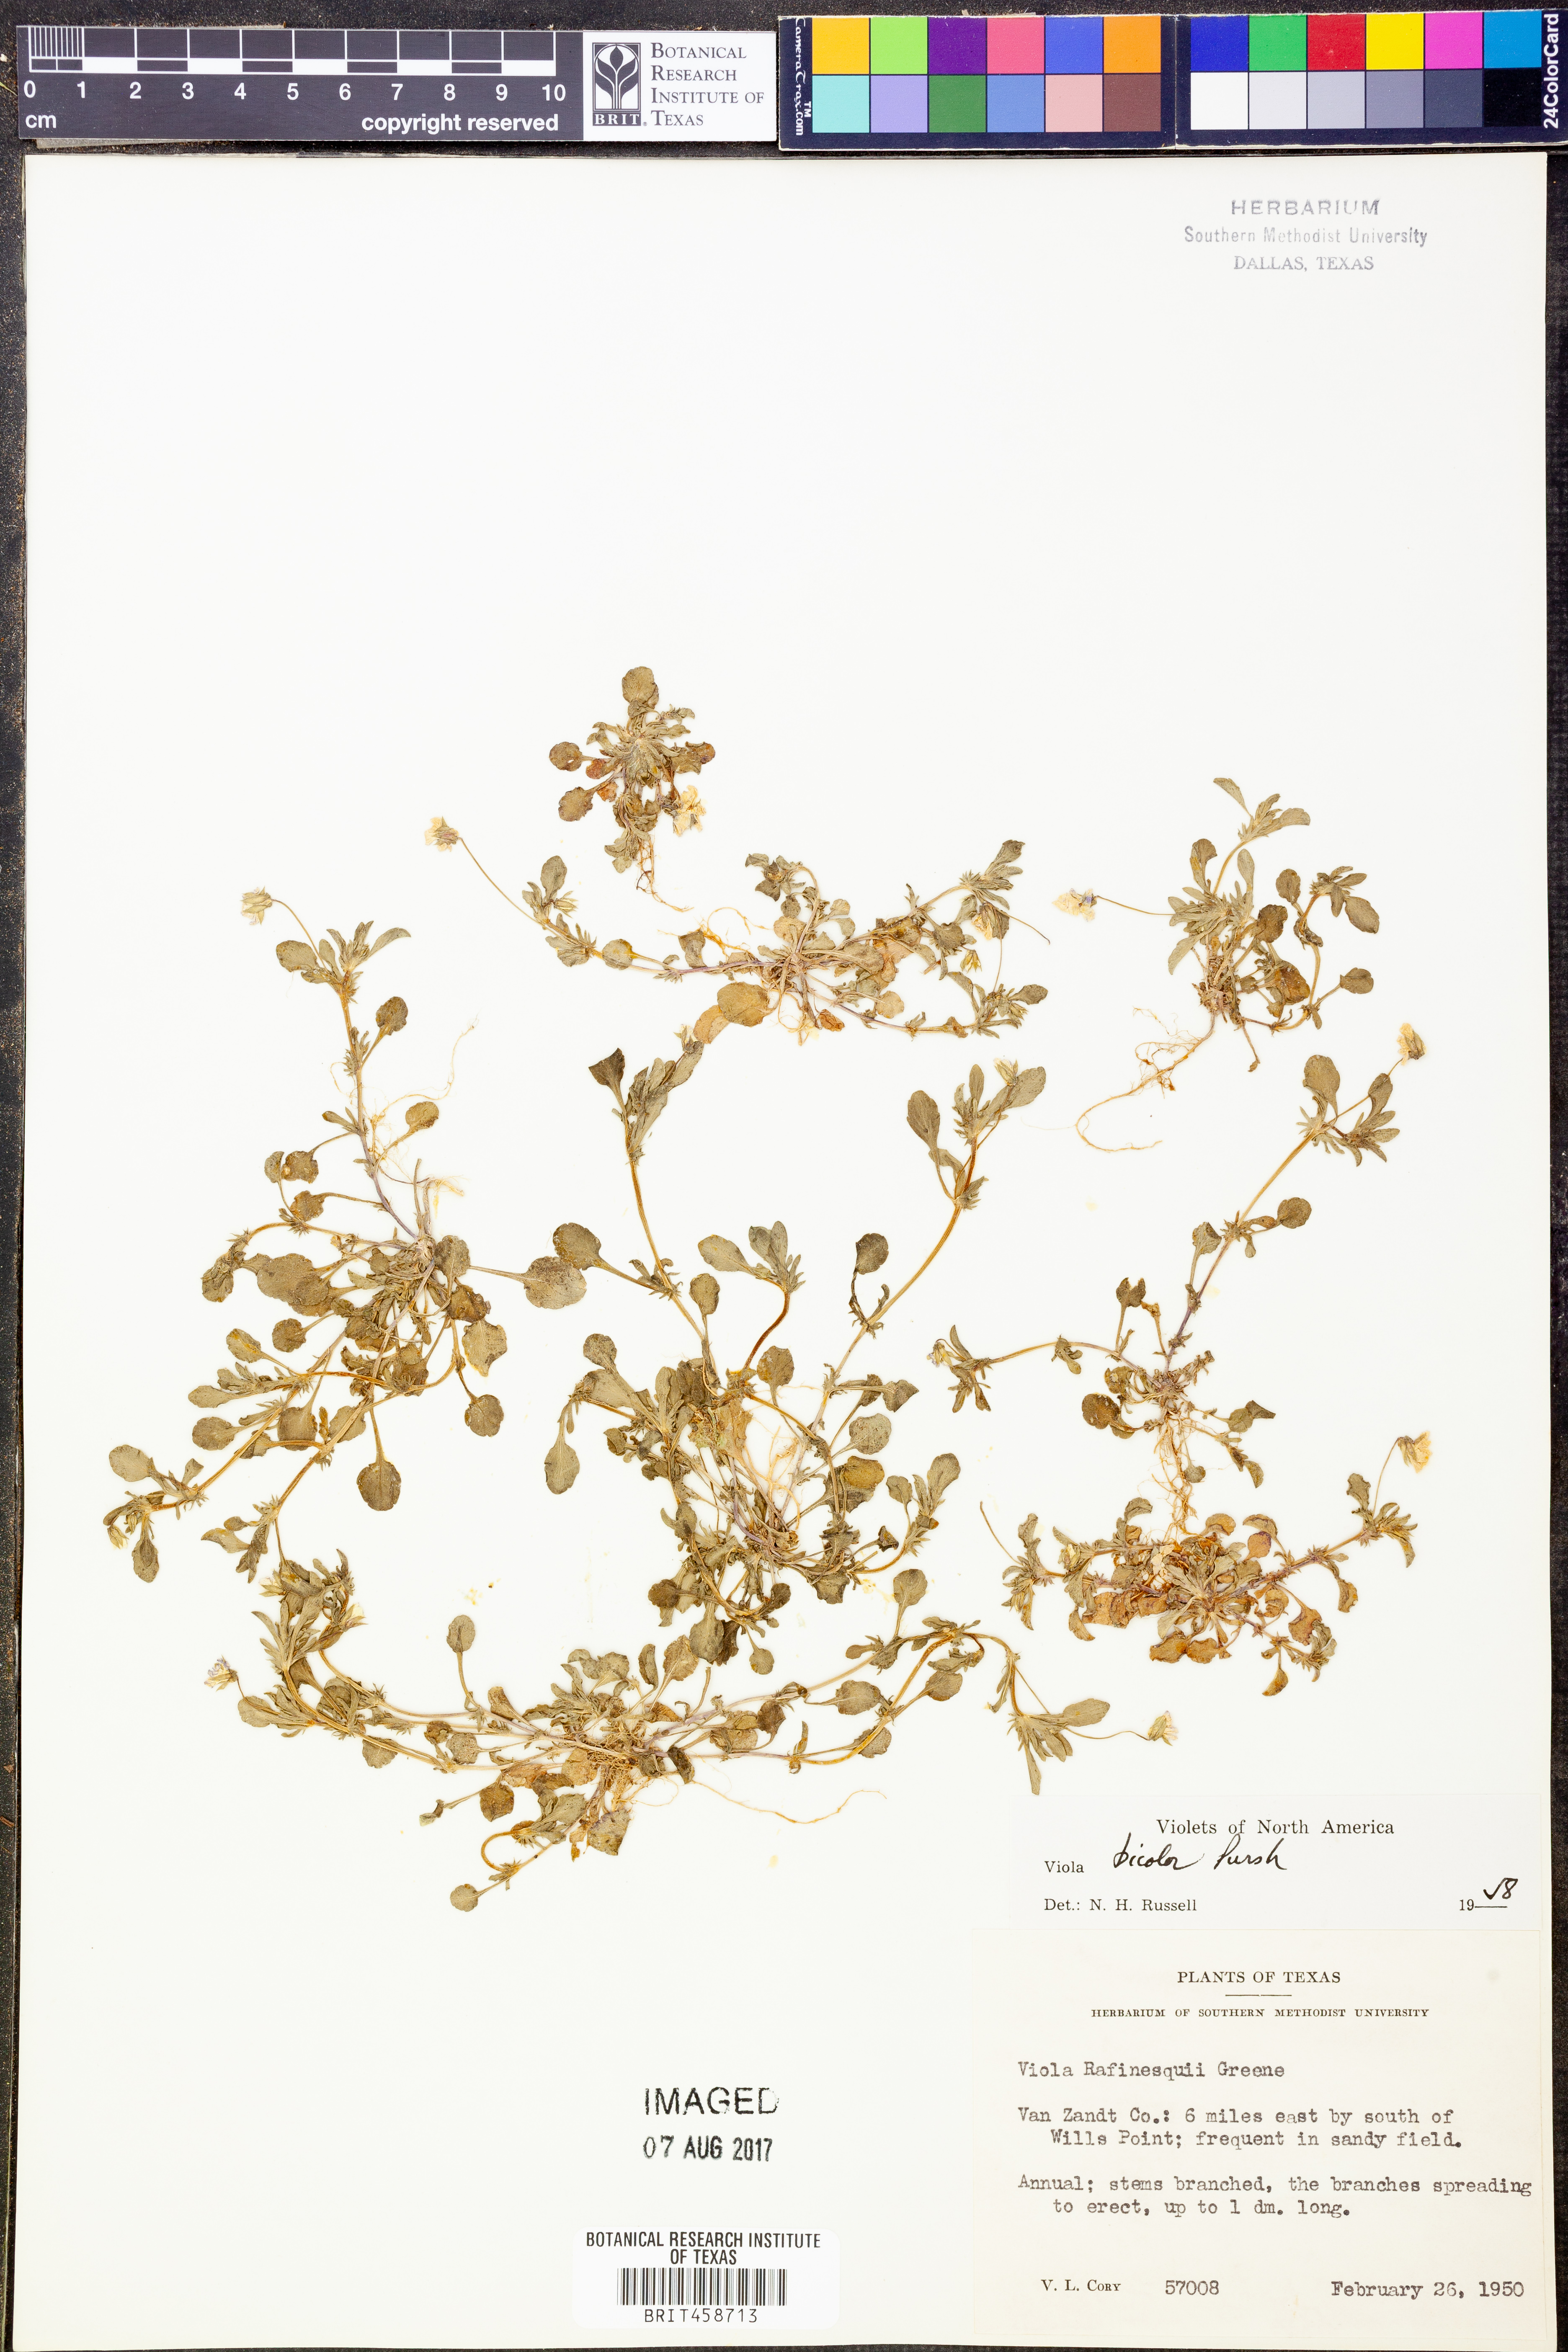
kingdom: Plantae
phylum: Tracheophyta
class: Magnoliopsida
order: Malpighiales
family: Violaceae
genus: Viola
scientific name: Viola rafinesquei
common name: American field pansy
